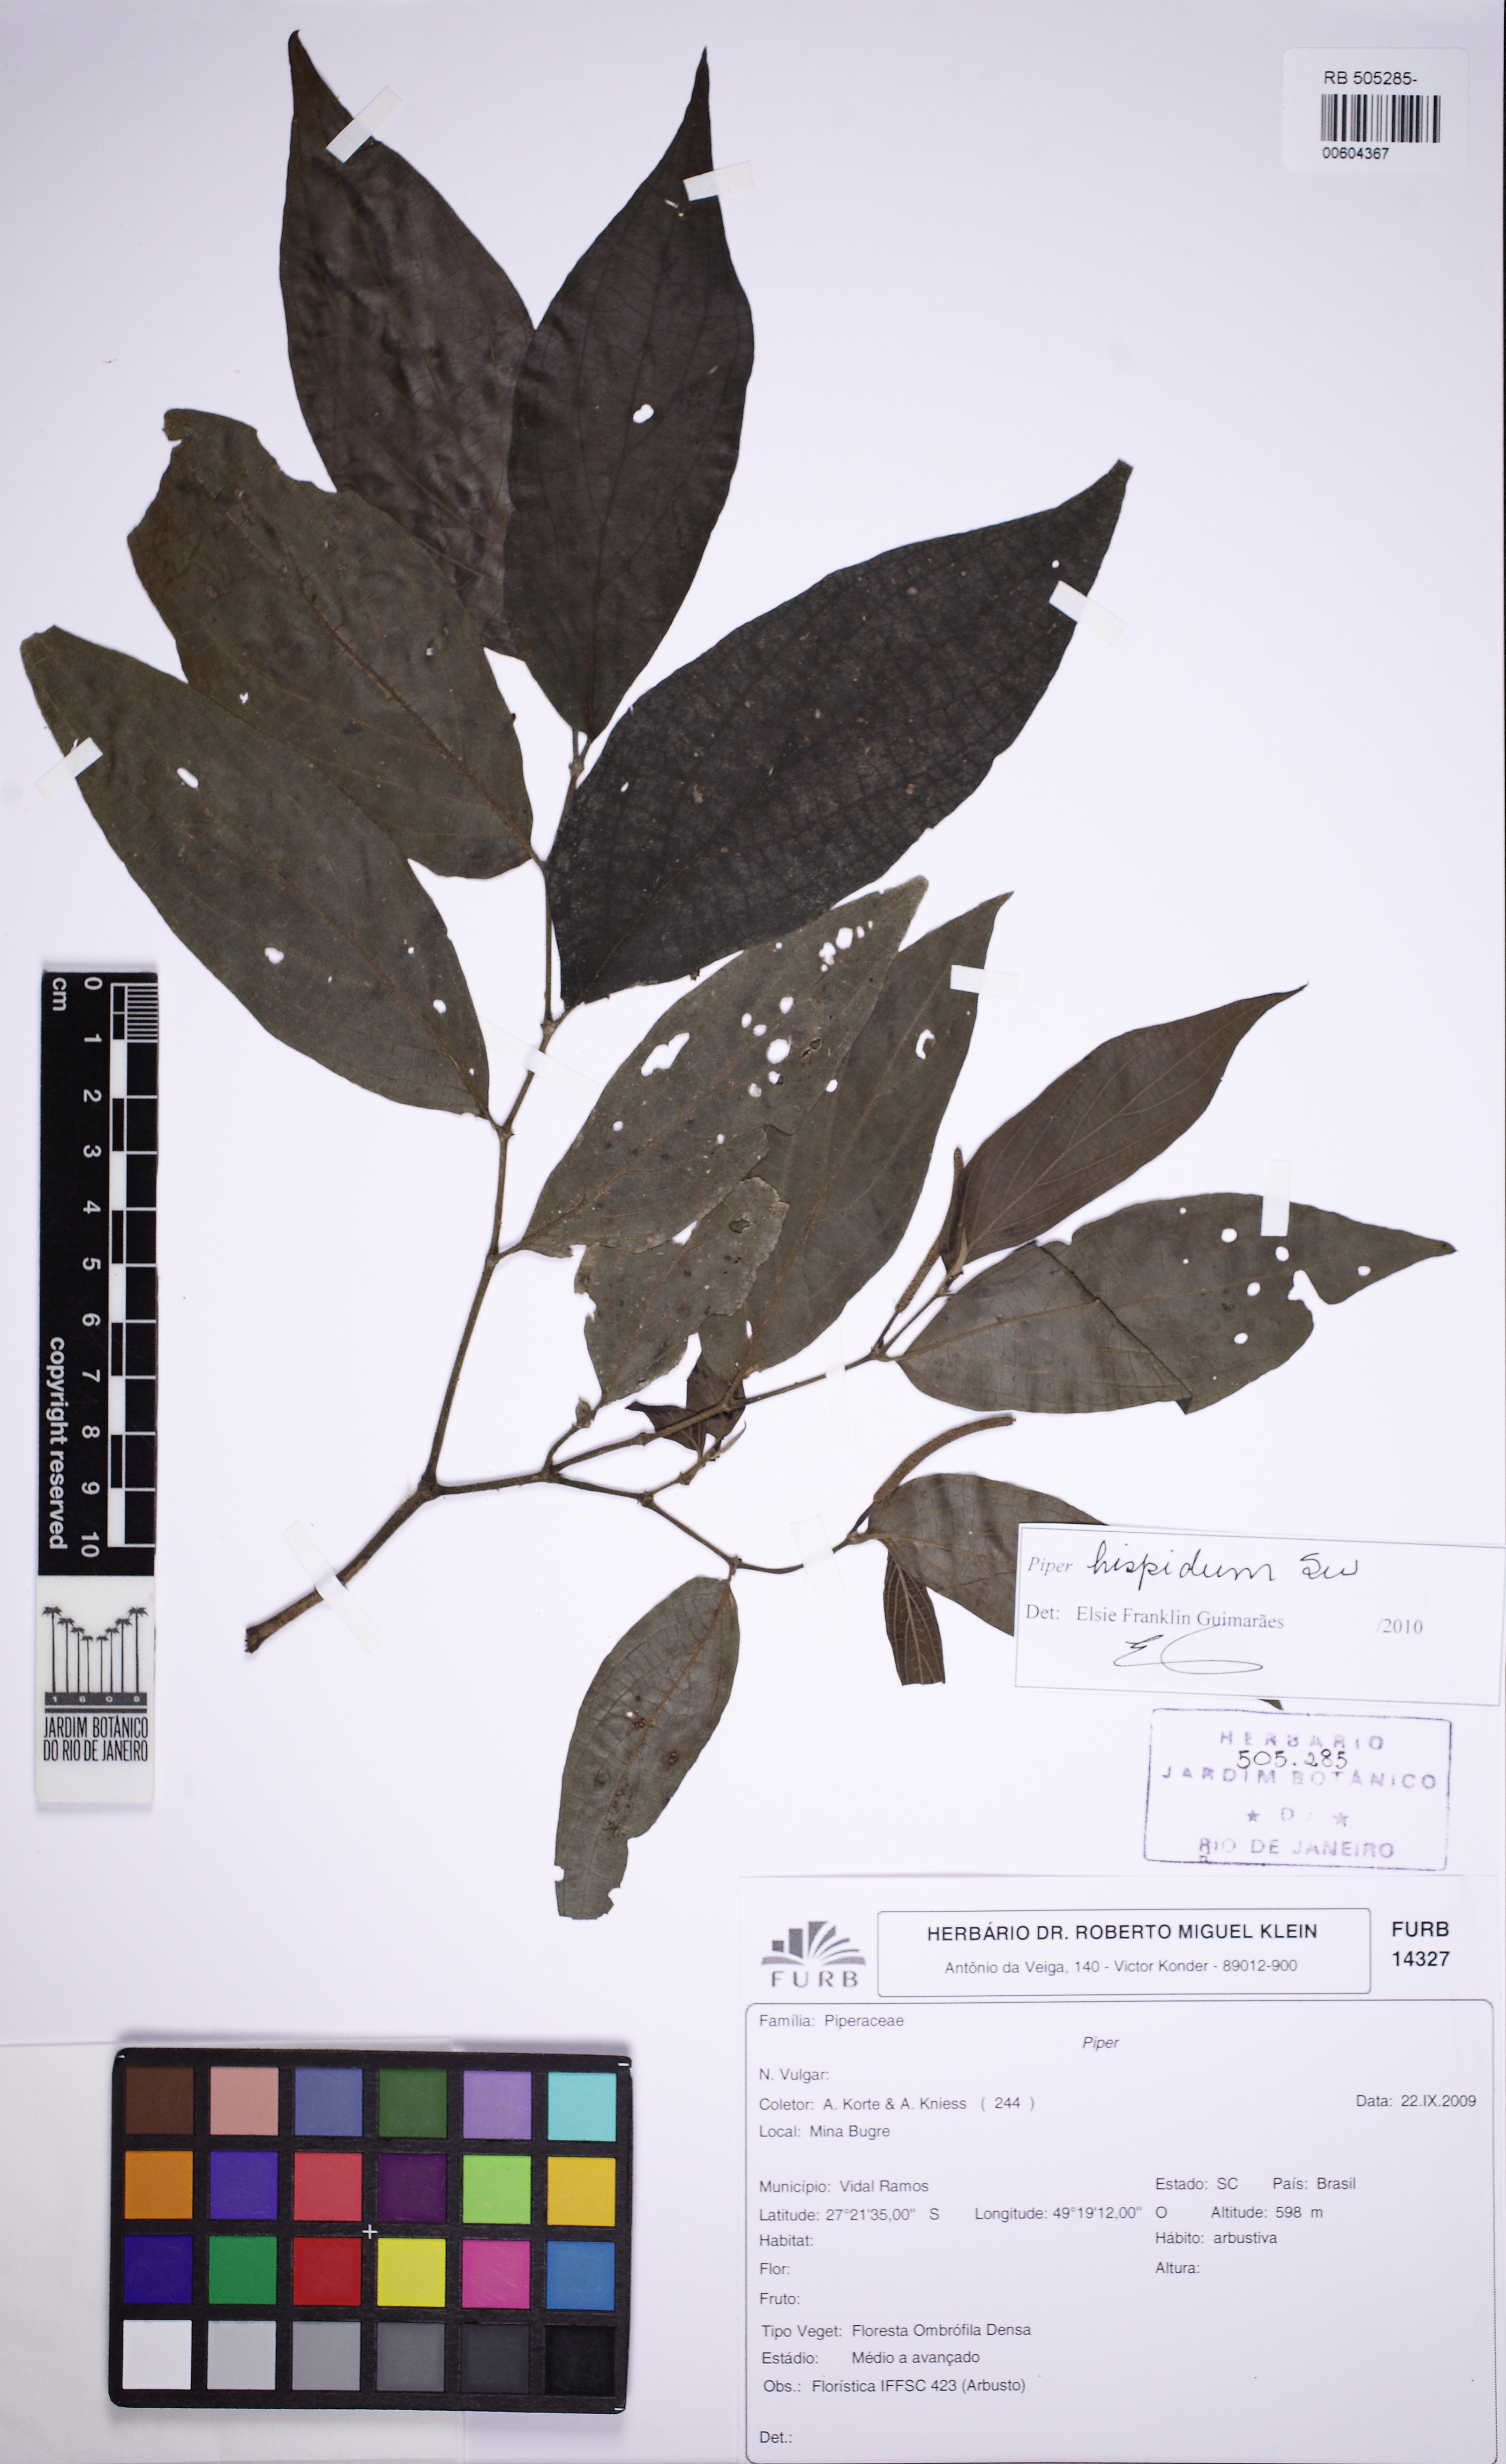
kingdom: Plantae
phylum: Tracheophyta
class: Magnoliopsida
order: Piperales
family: Piperaceae
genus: Piper
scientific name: Piper hispidum
